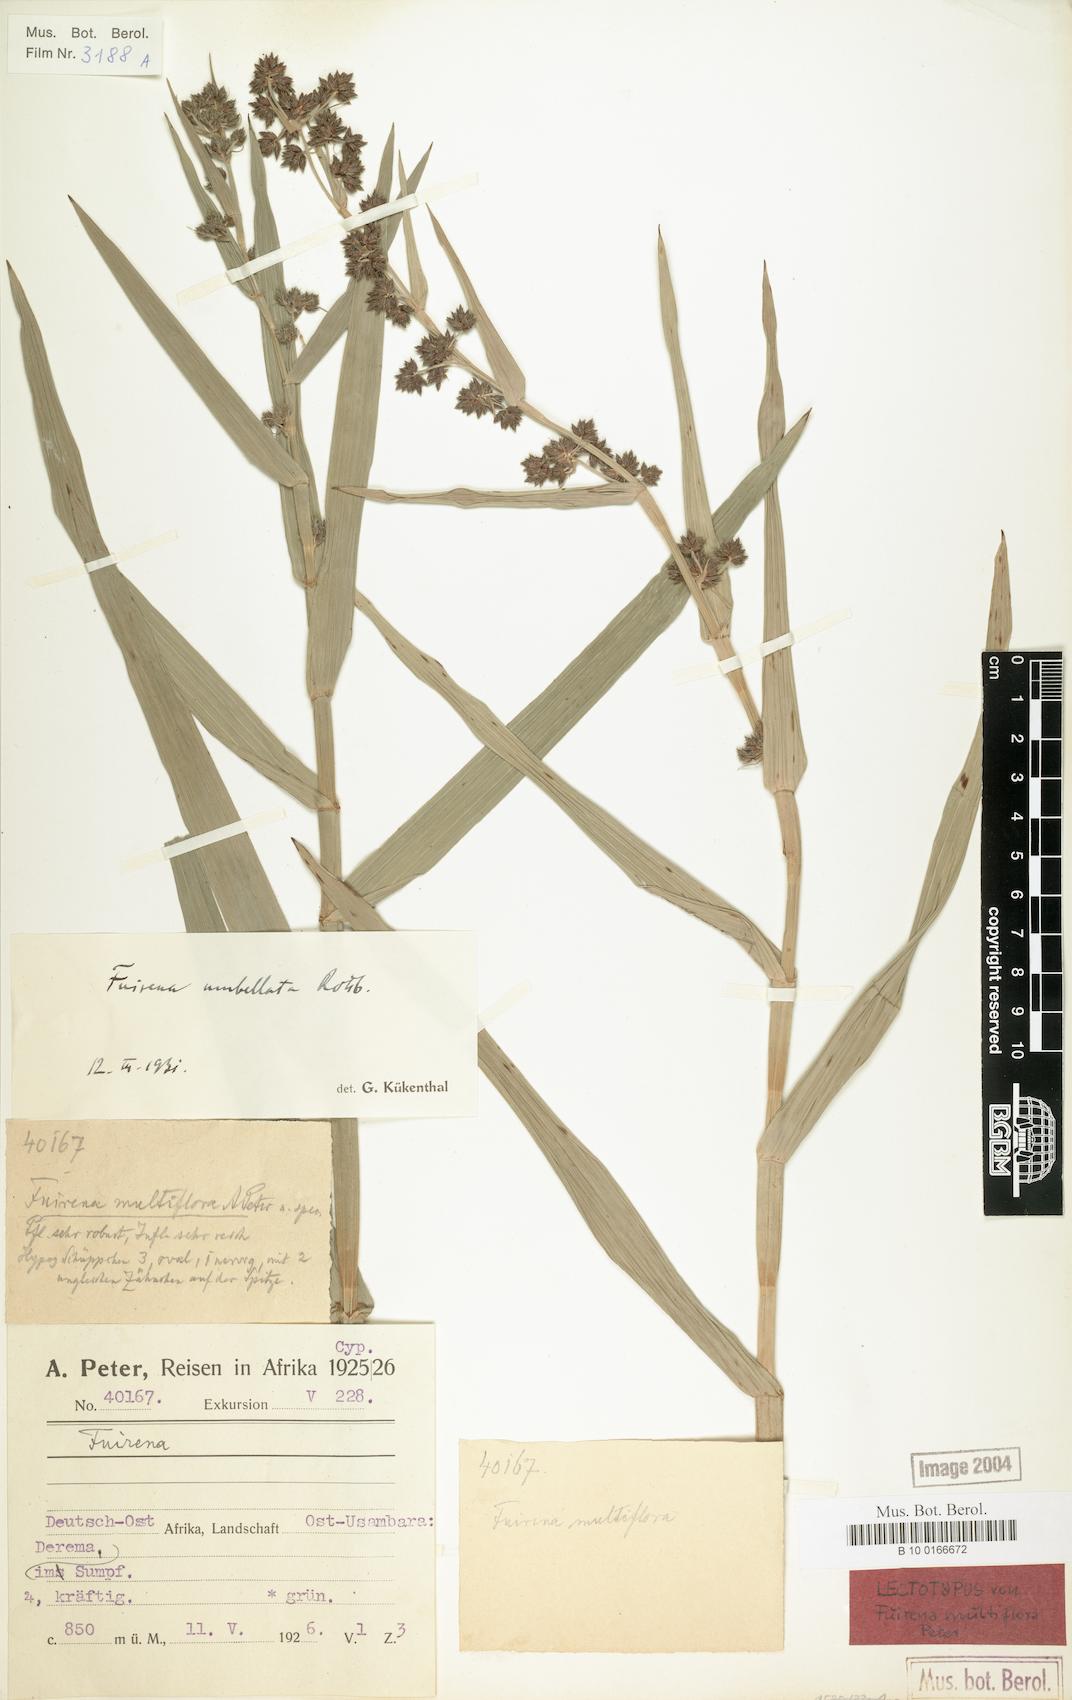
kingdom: Plantae
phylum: Tracheophyta
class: Liliopsida
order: Poales
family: Cyperaceae
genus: Fuirena
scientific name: Fuirena umbellata
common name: Yefen
